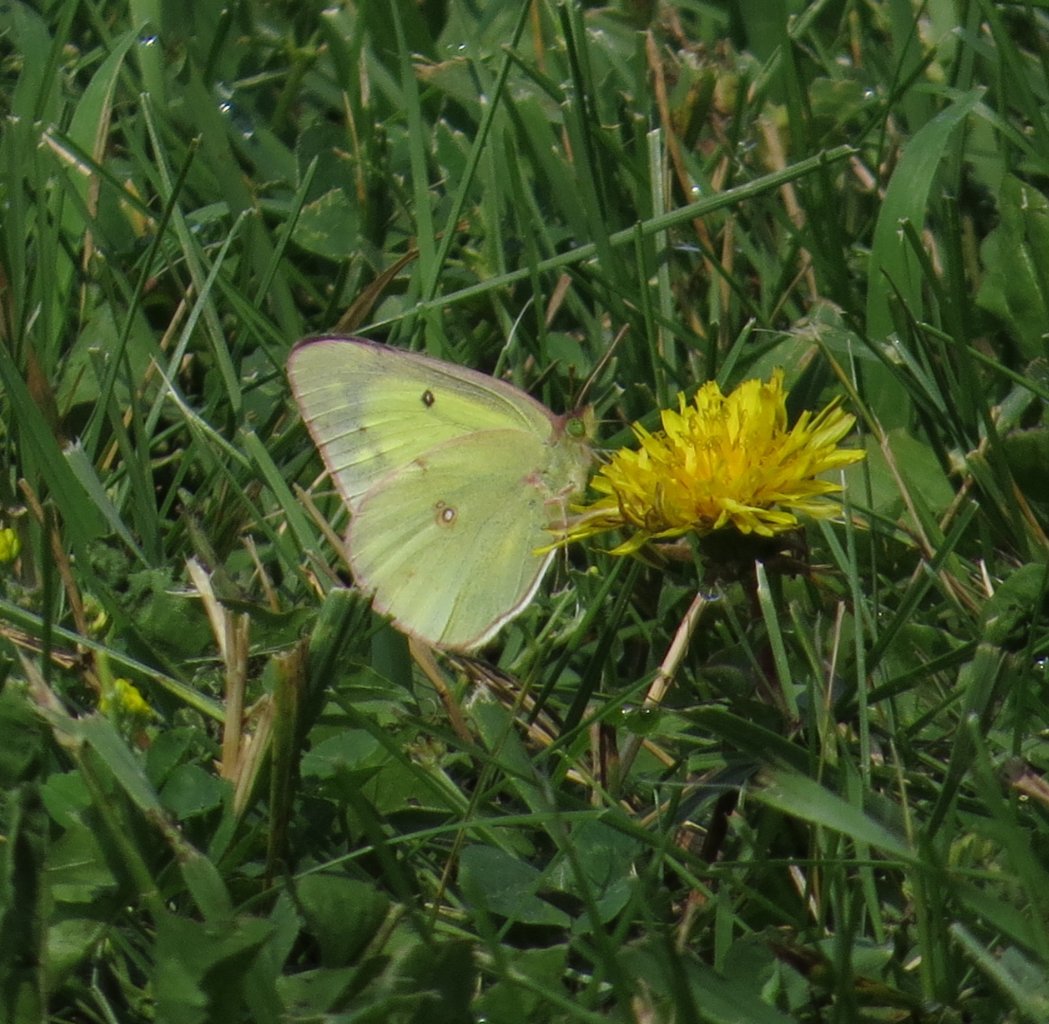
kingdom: Animalia
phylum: Arthropoda
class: Insecta
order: Lepidoptera
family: Pieridae
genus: Colias
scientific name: Colias philodice
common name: Clouded Sulphur
